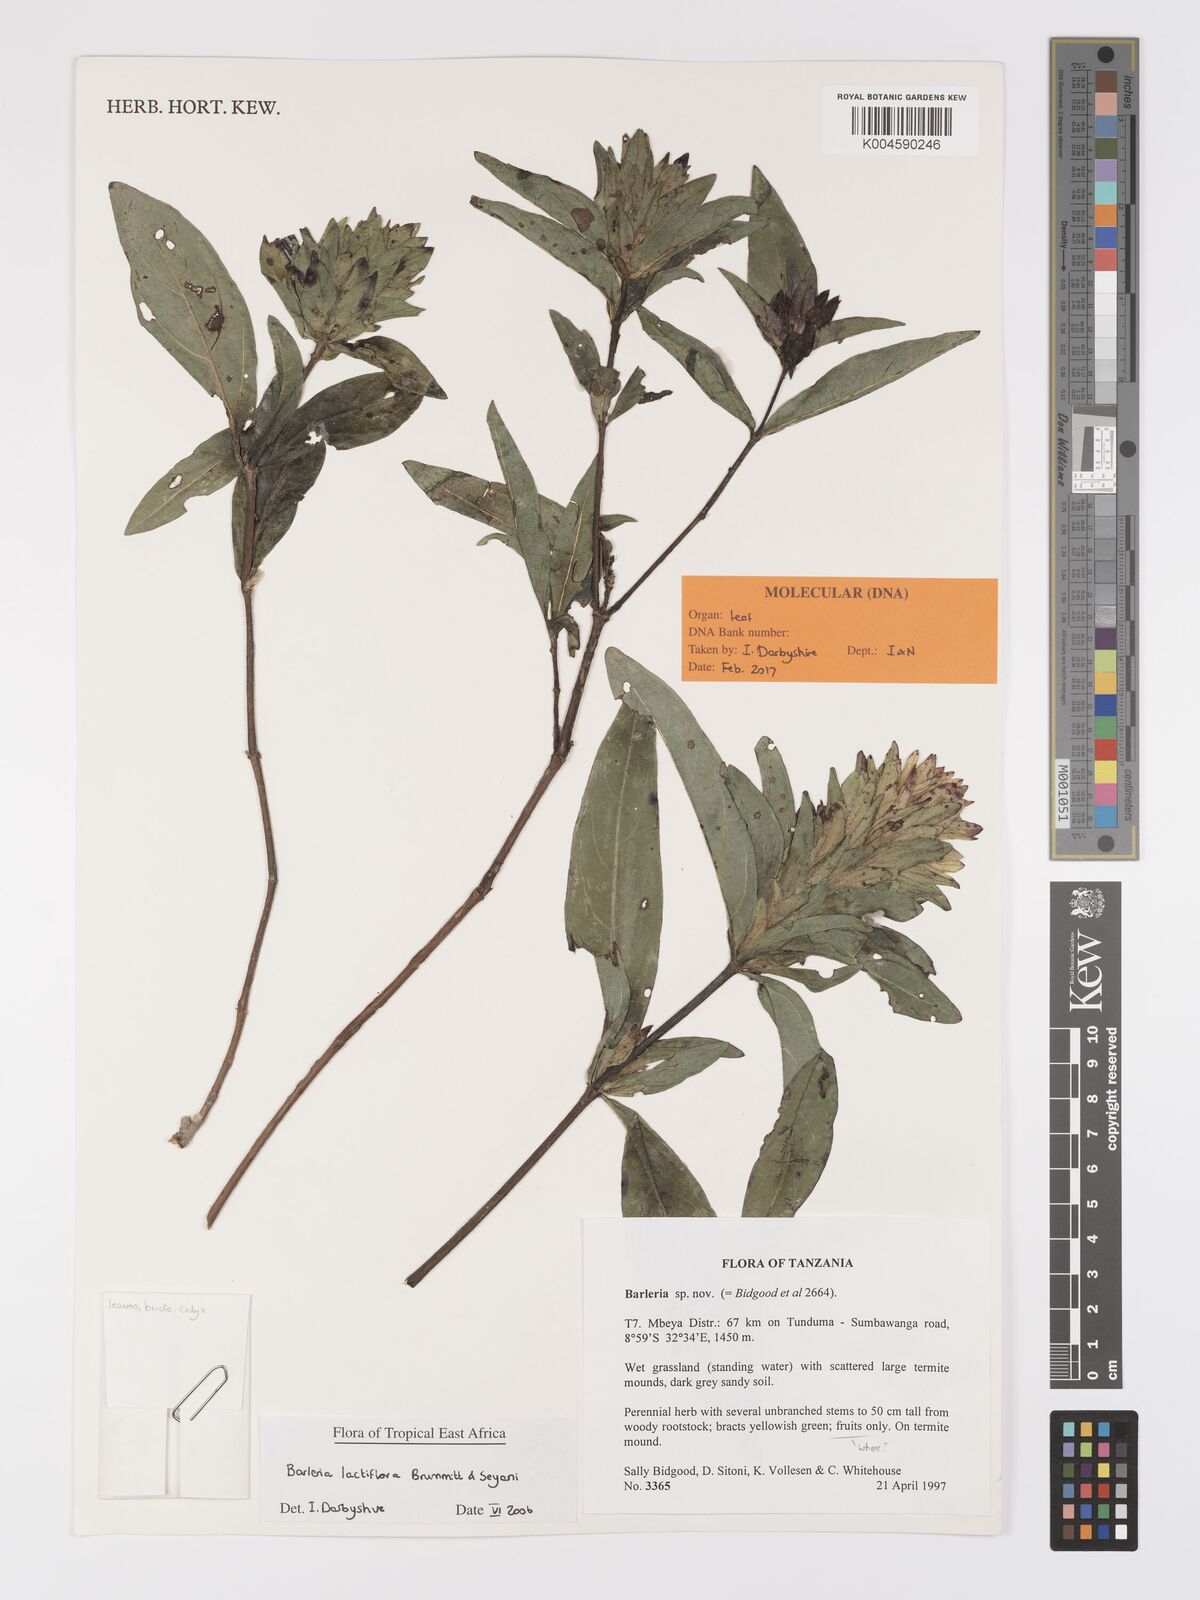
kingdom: Plantae
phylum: Tracheophyta
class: Magnoliopsida
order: Lamiales
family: Acanthaceae
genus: Barleria
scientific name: Barleria lactiflora
